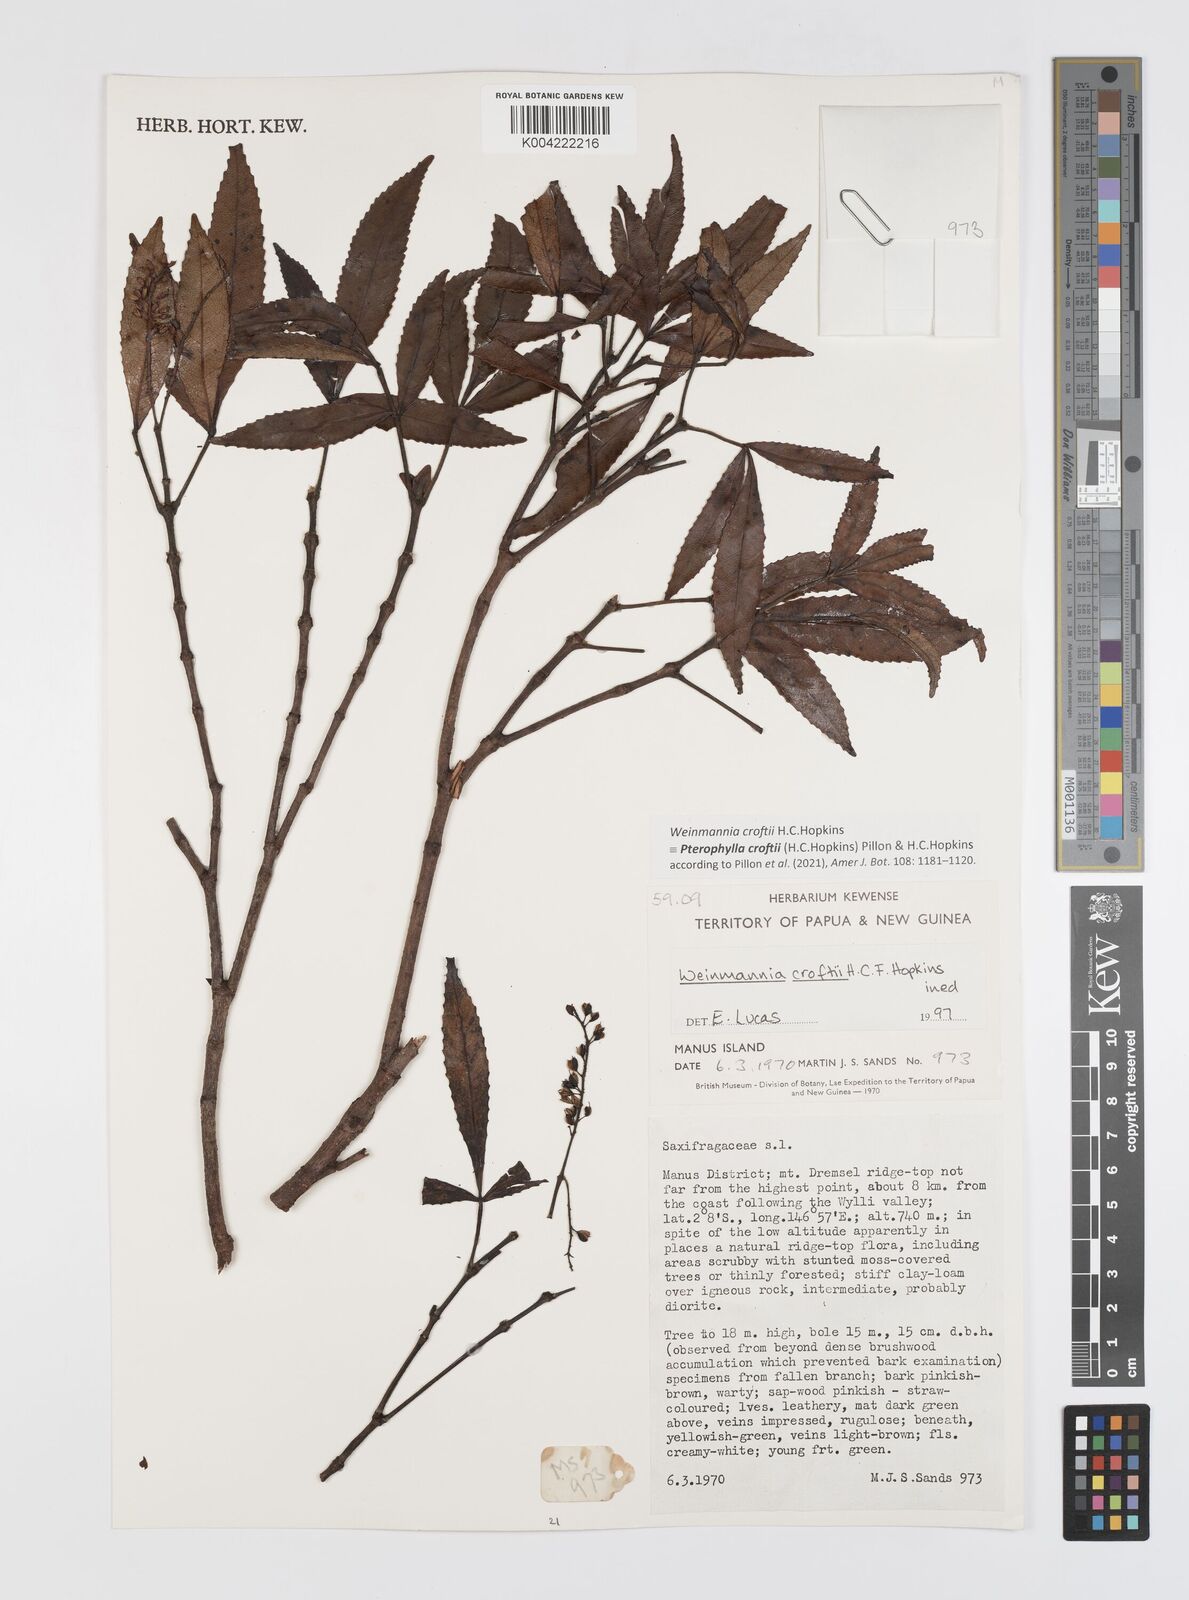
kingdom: Plantae
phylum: Tracheophyta
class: Magnoliopsida
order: Oxalidales
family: Cunoniaceae
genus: Pterophylla
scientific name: Pterophylla croftii
